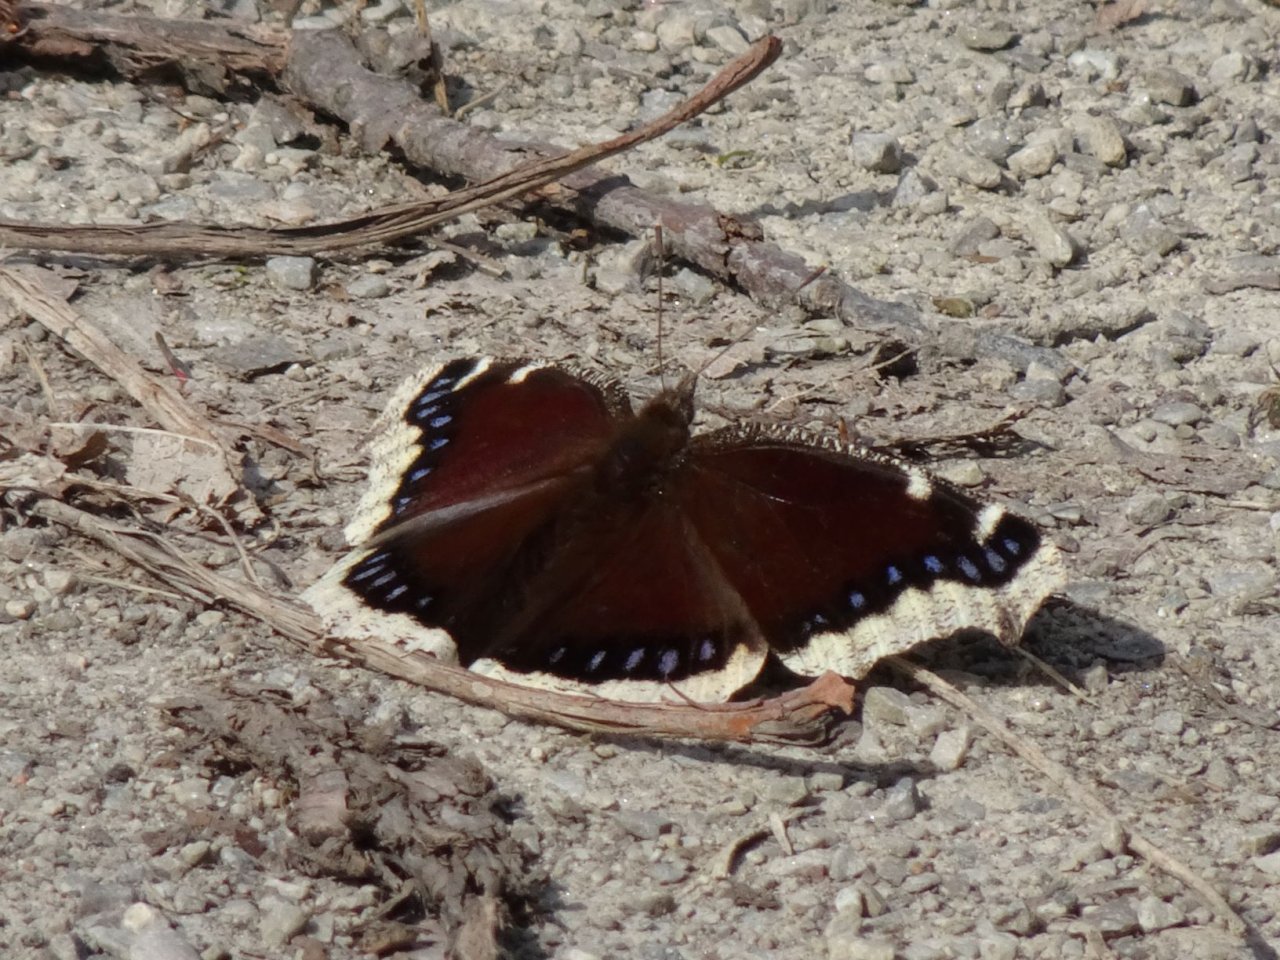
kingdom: Animalia
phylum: Arthropoda
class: Insecta
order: Lepidoptera
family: Nymphalidae
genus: Nymphalis
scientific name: Nymphalis antiopa
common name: Mourning Cloak
